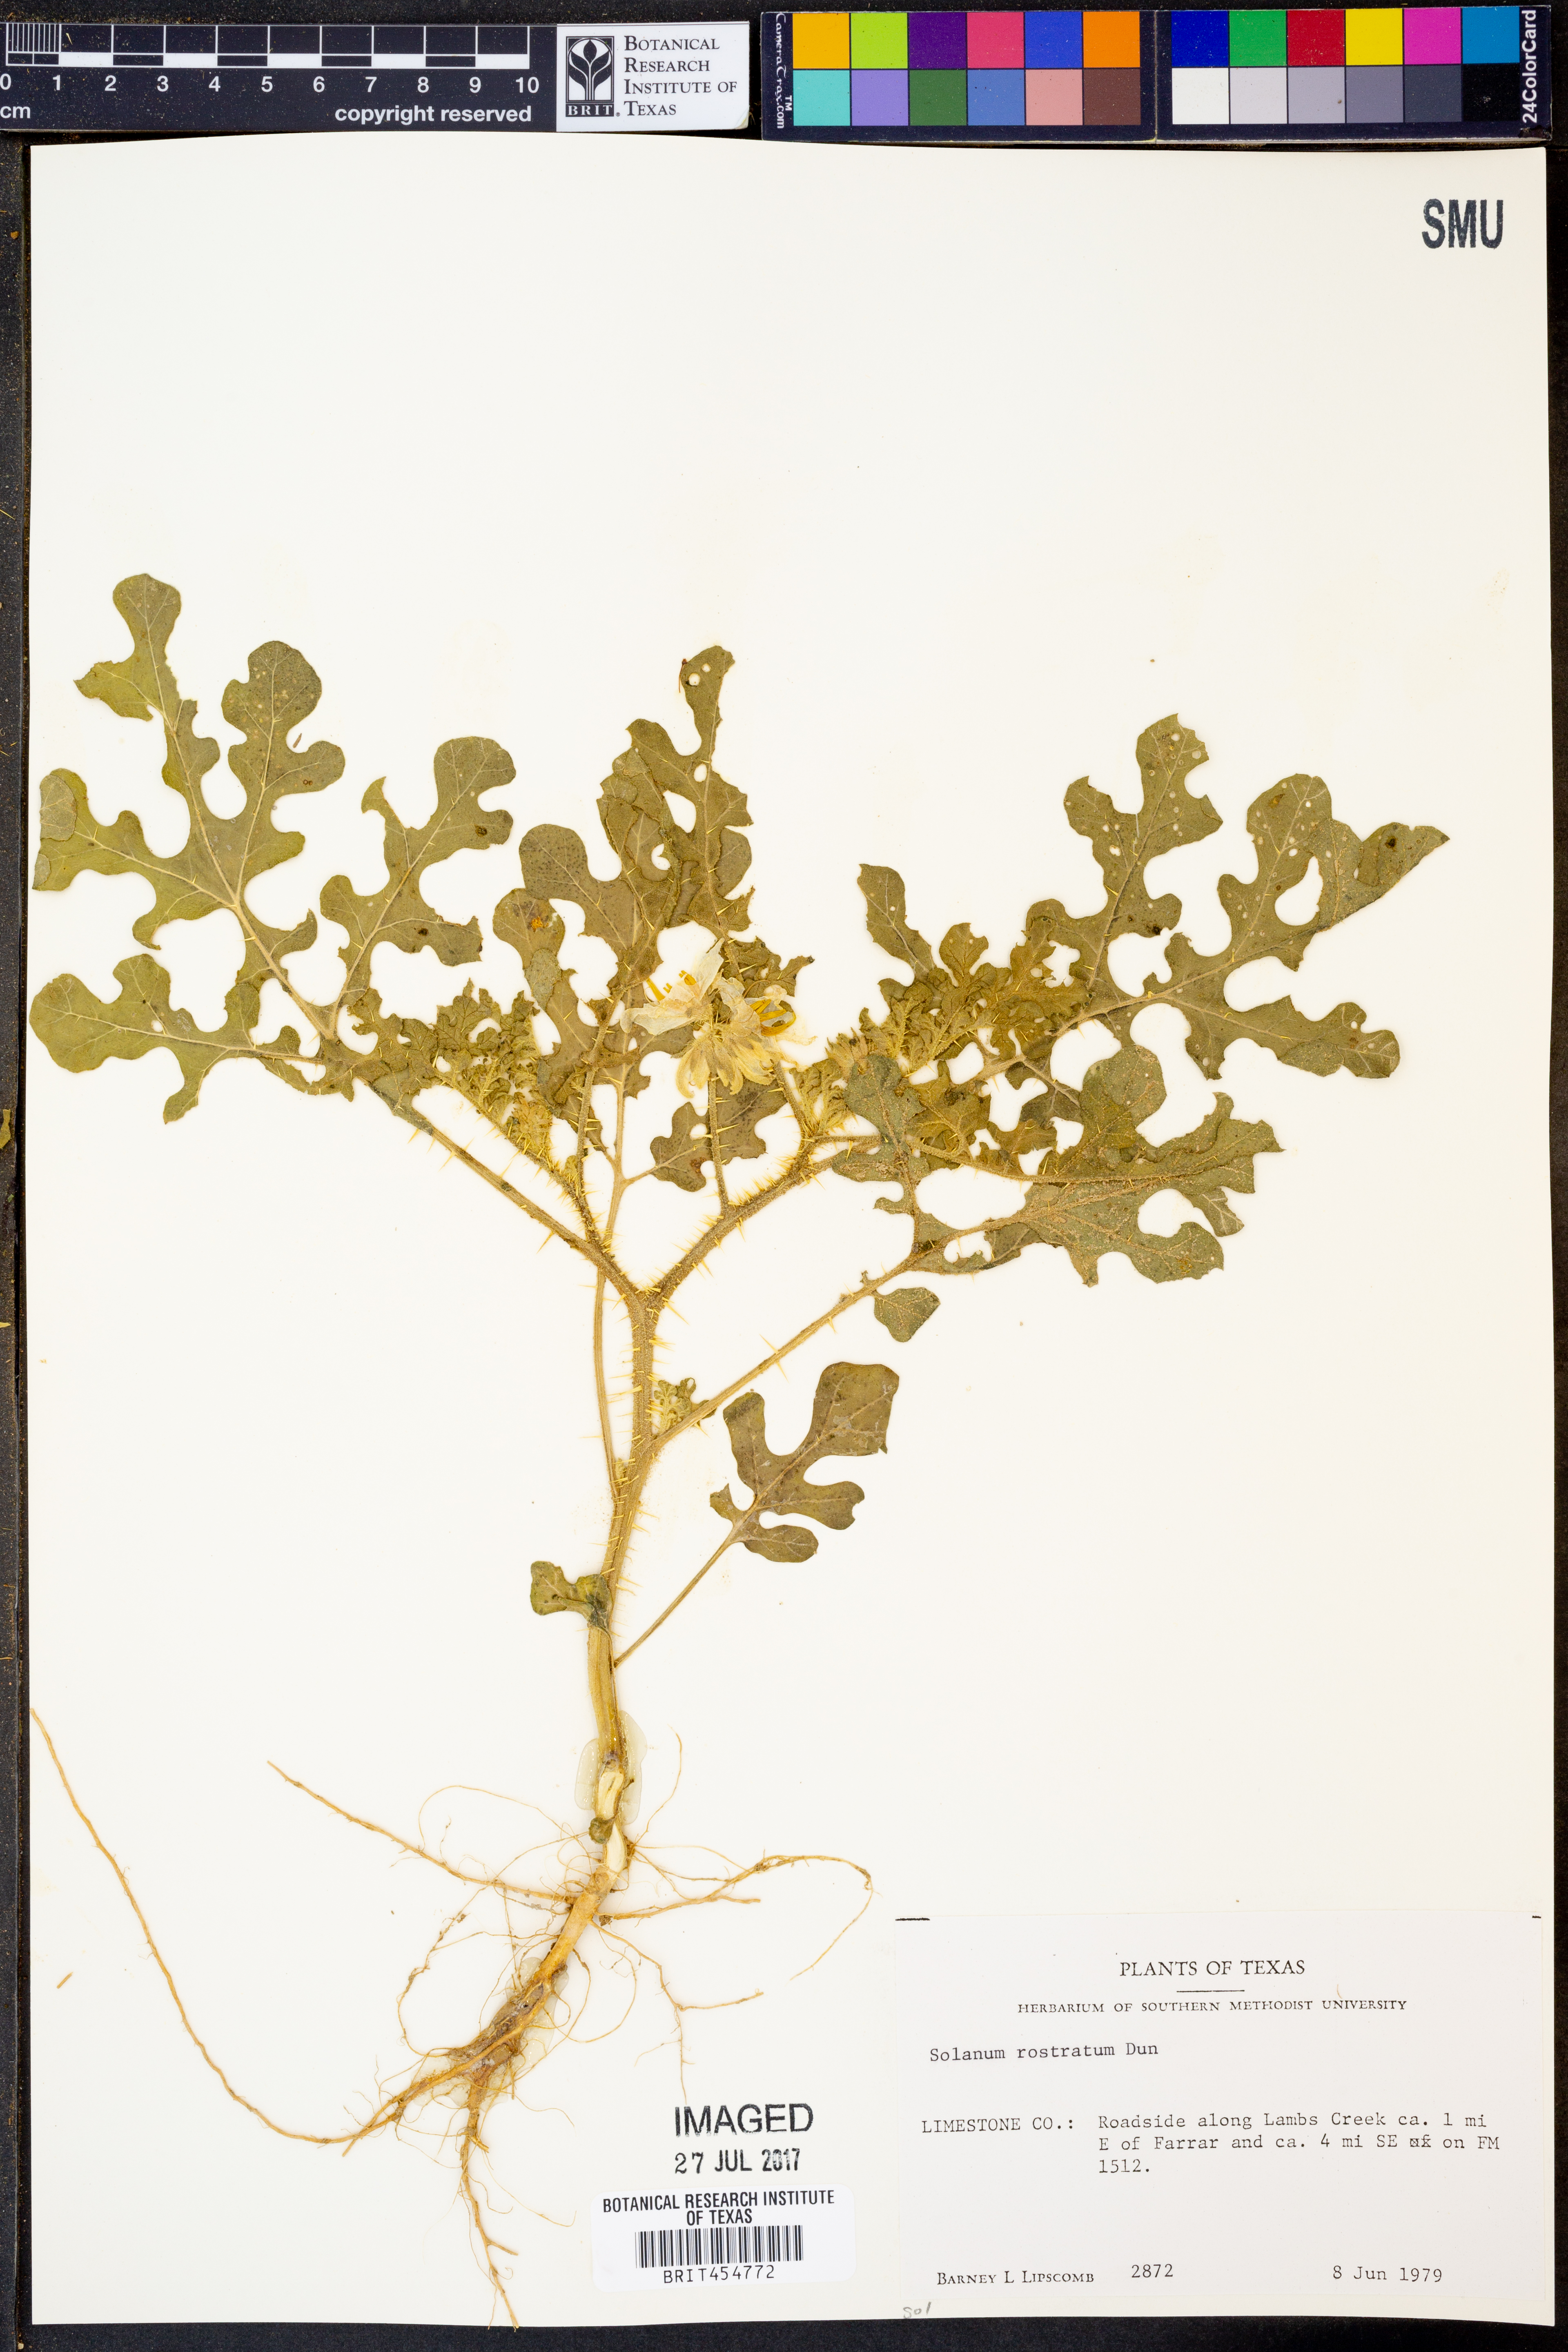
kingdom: Plantae
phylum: Tracheophyta
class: Magnoliopsida
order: Solanales
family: Solanaceae
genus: Solanum
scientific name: Solanum angustifolium
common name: Buffalobur nightshade
